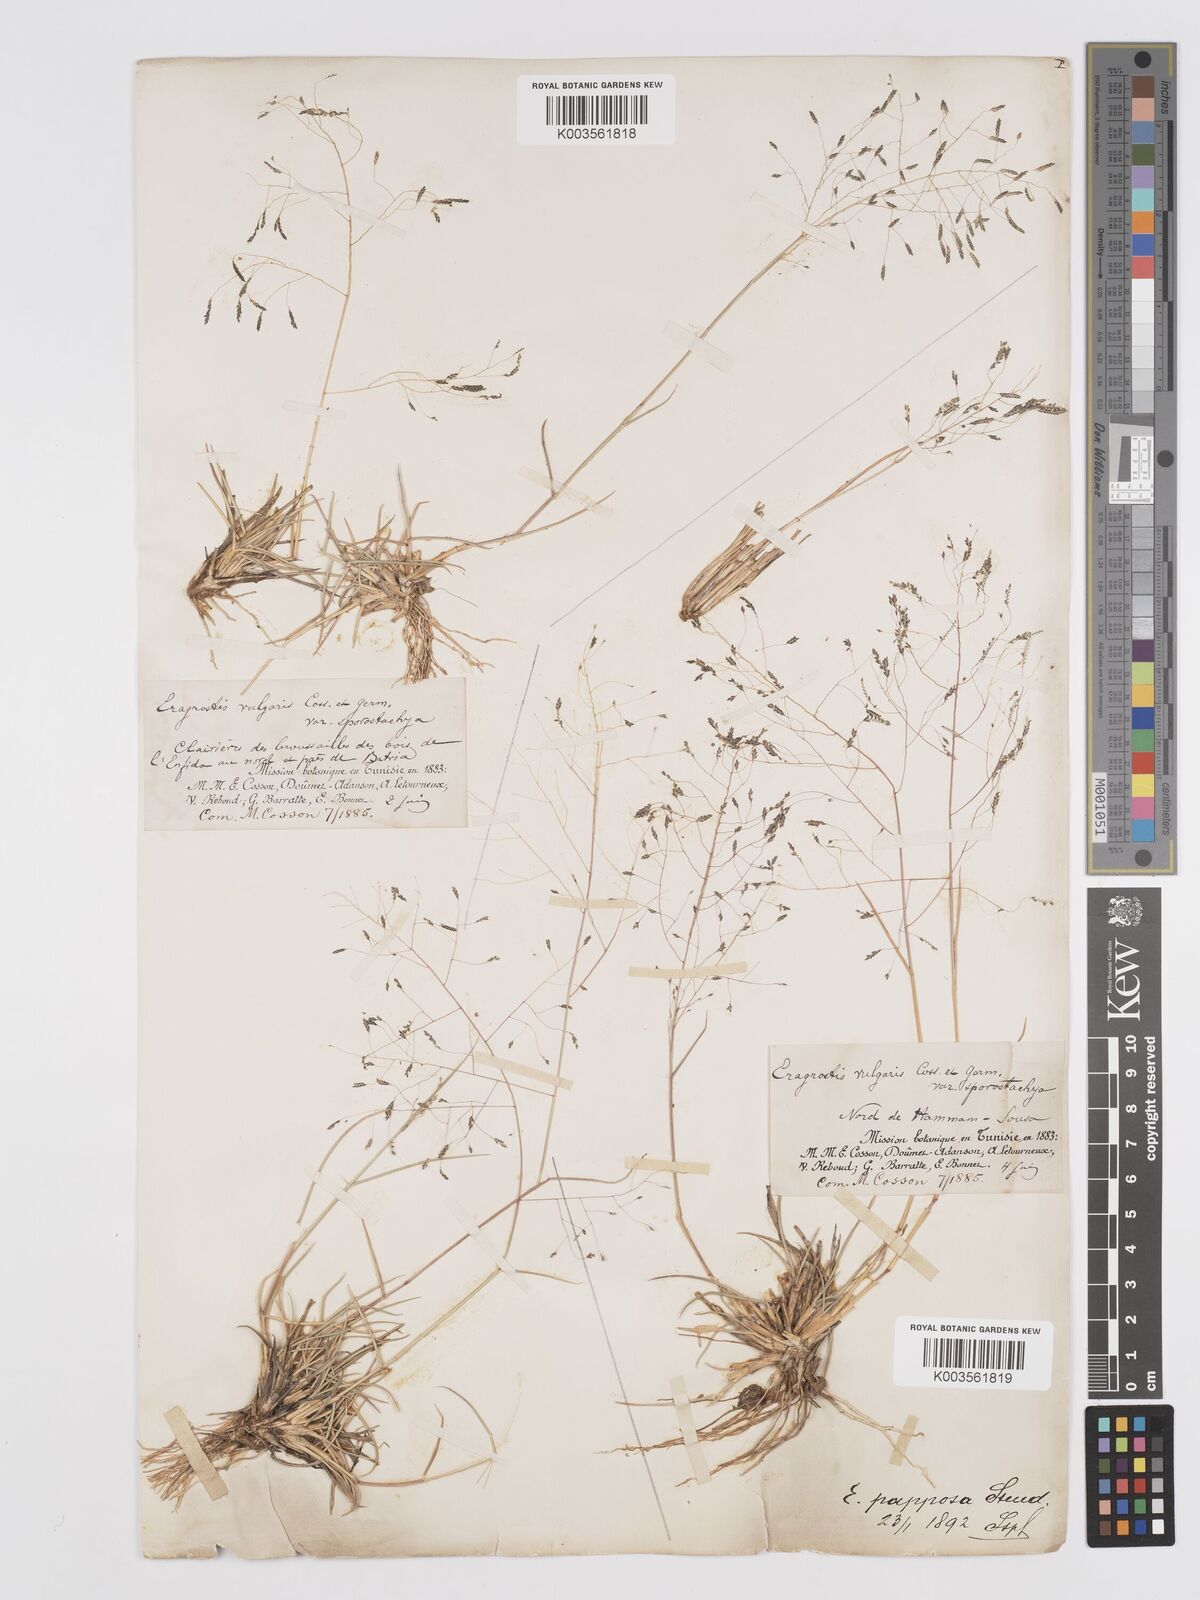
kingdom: Plantae
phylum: Tracheophyta
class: Liliopsida
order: Poales
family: Poaceae
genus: Eragrostis
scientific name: Eragrostis papposa
